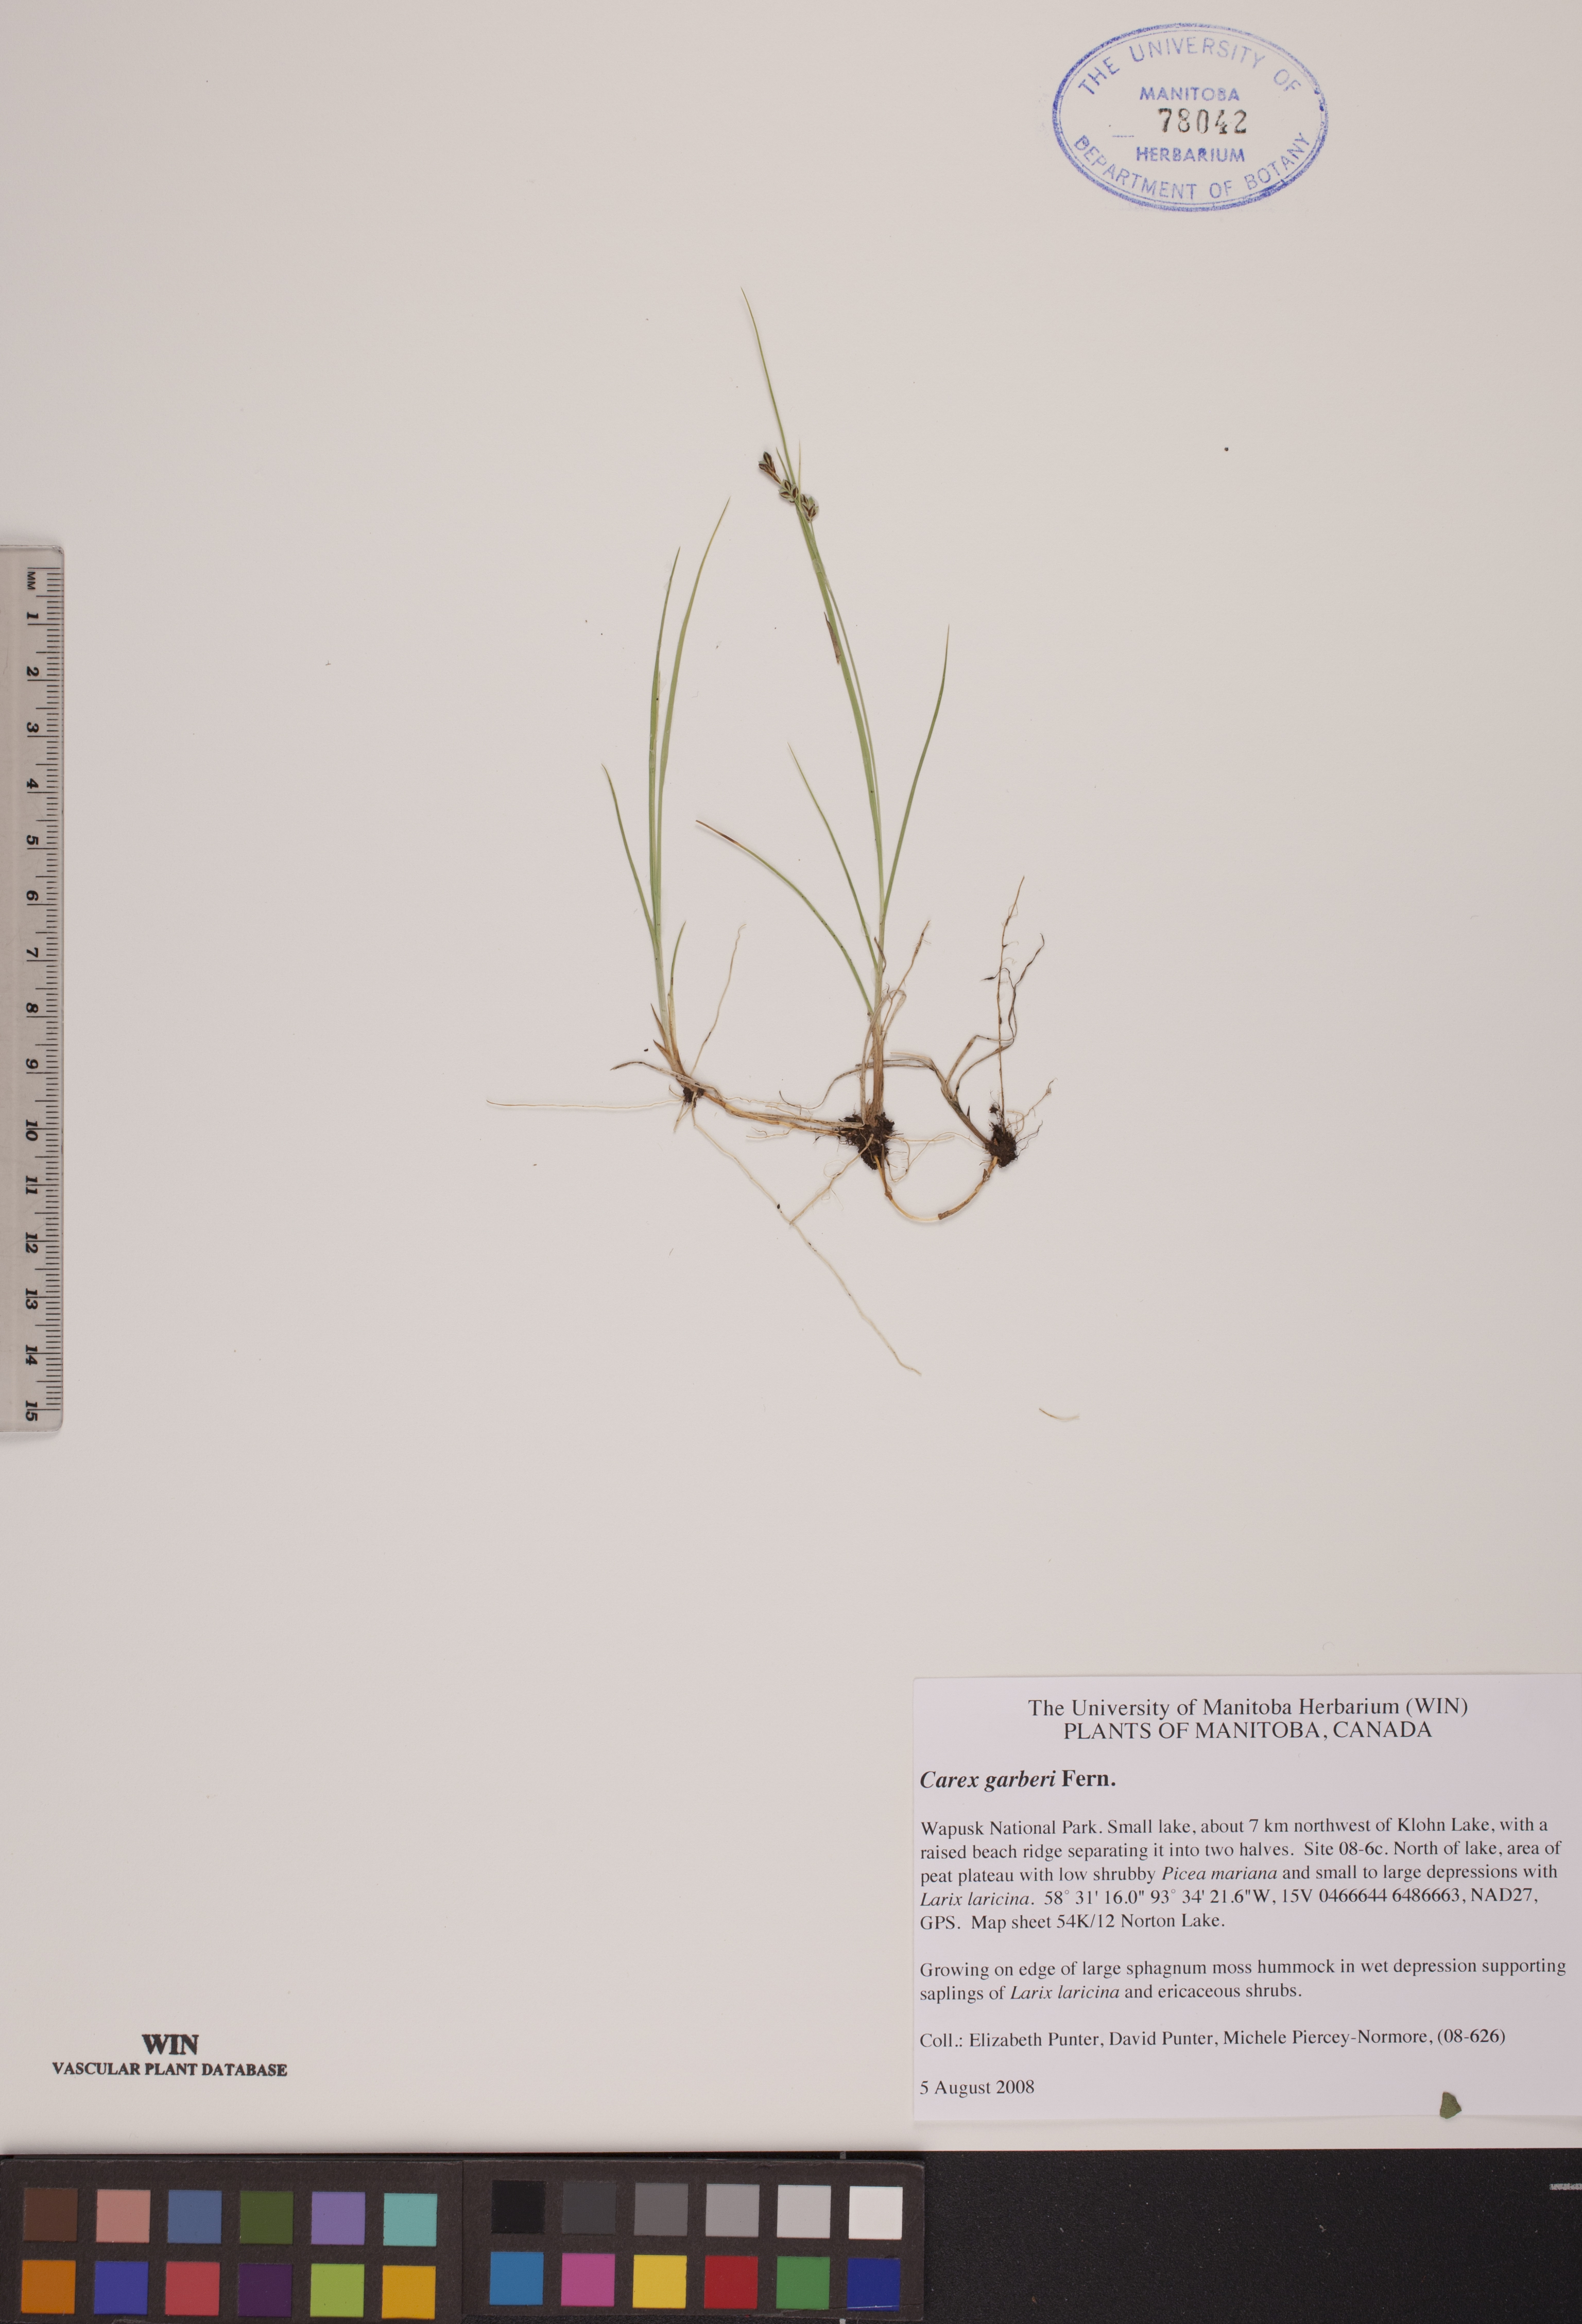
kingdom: Plantae
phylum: Tracheophyta
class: Liliopsida
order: Poales
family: Cyperaceae
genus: Carex
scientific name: Carex garberi
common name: Elk sedge
